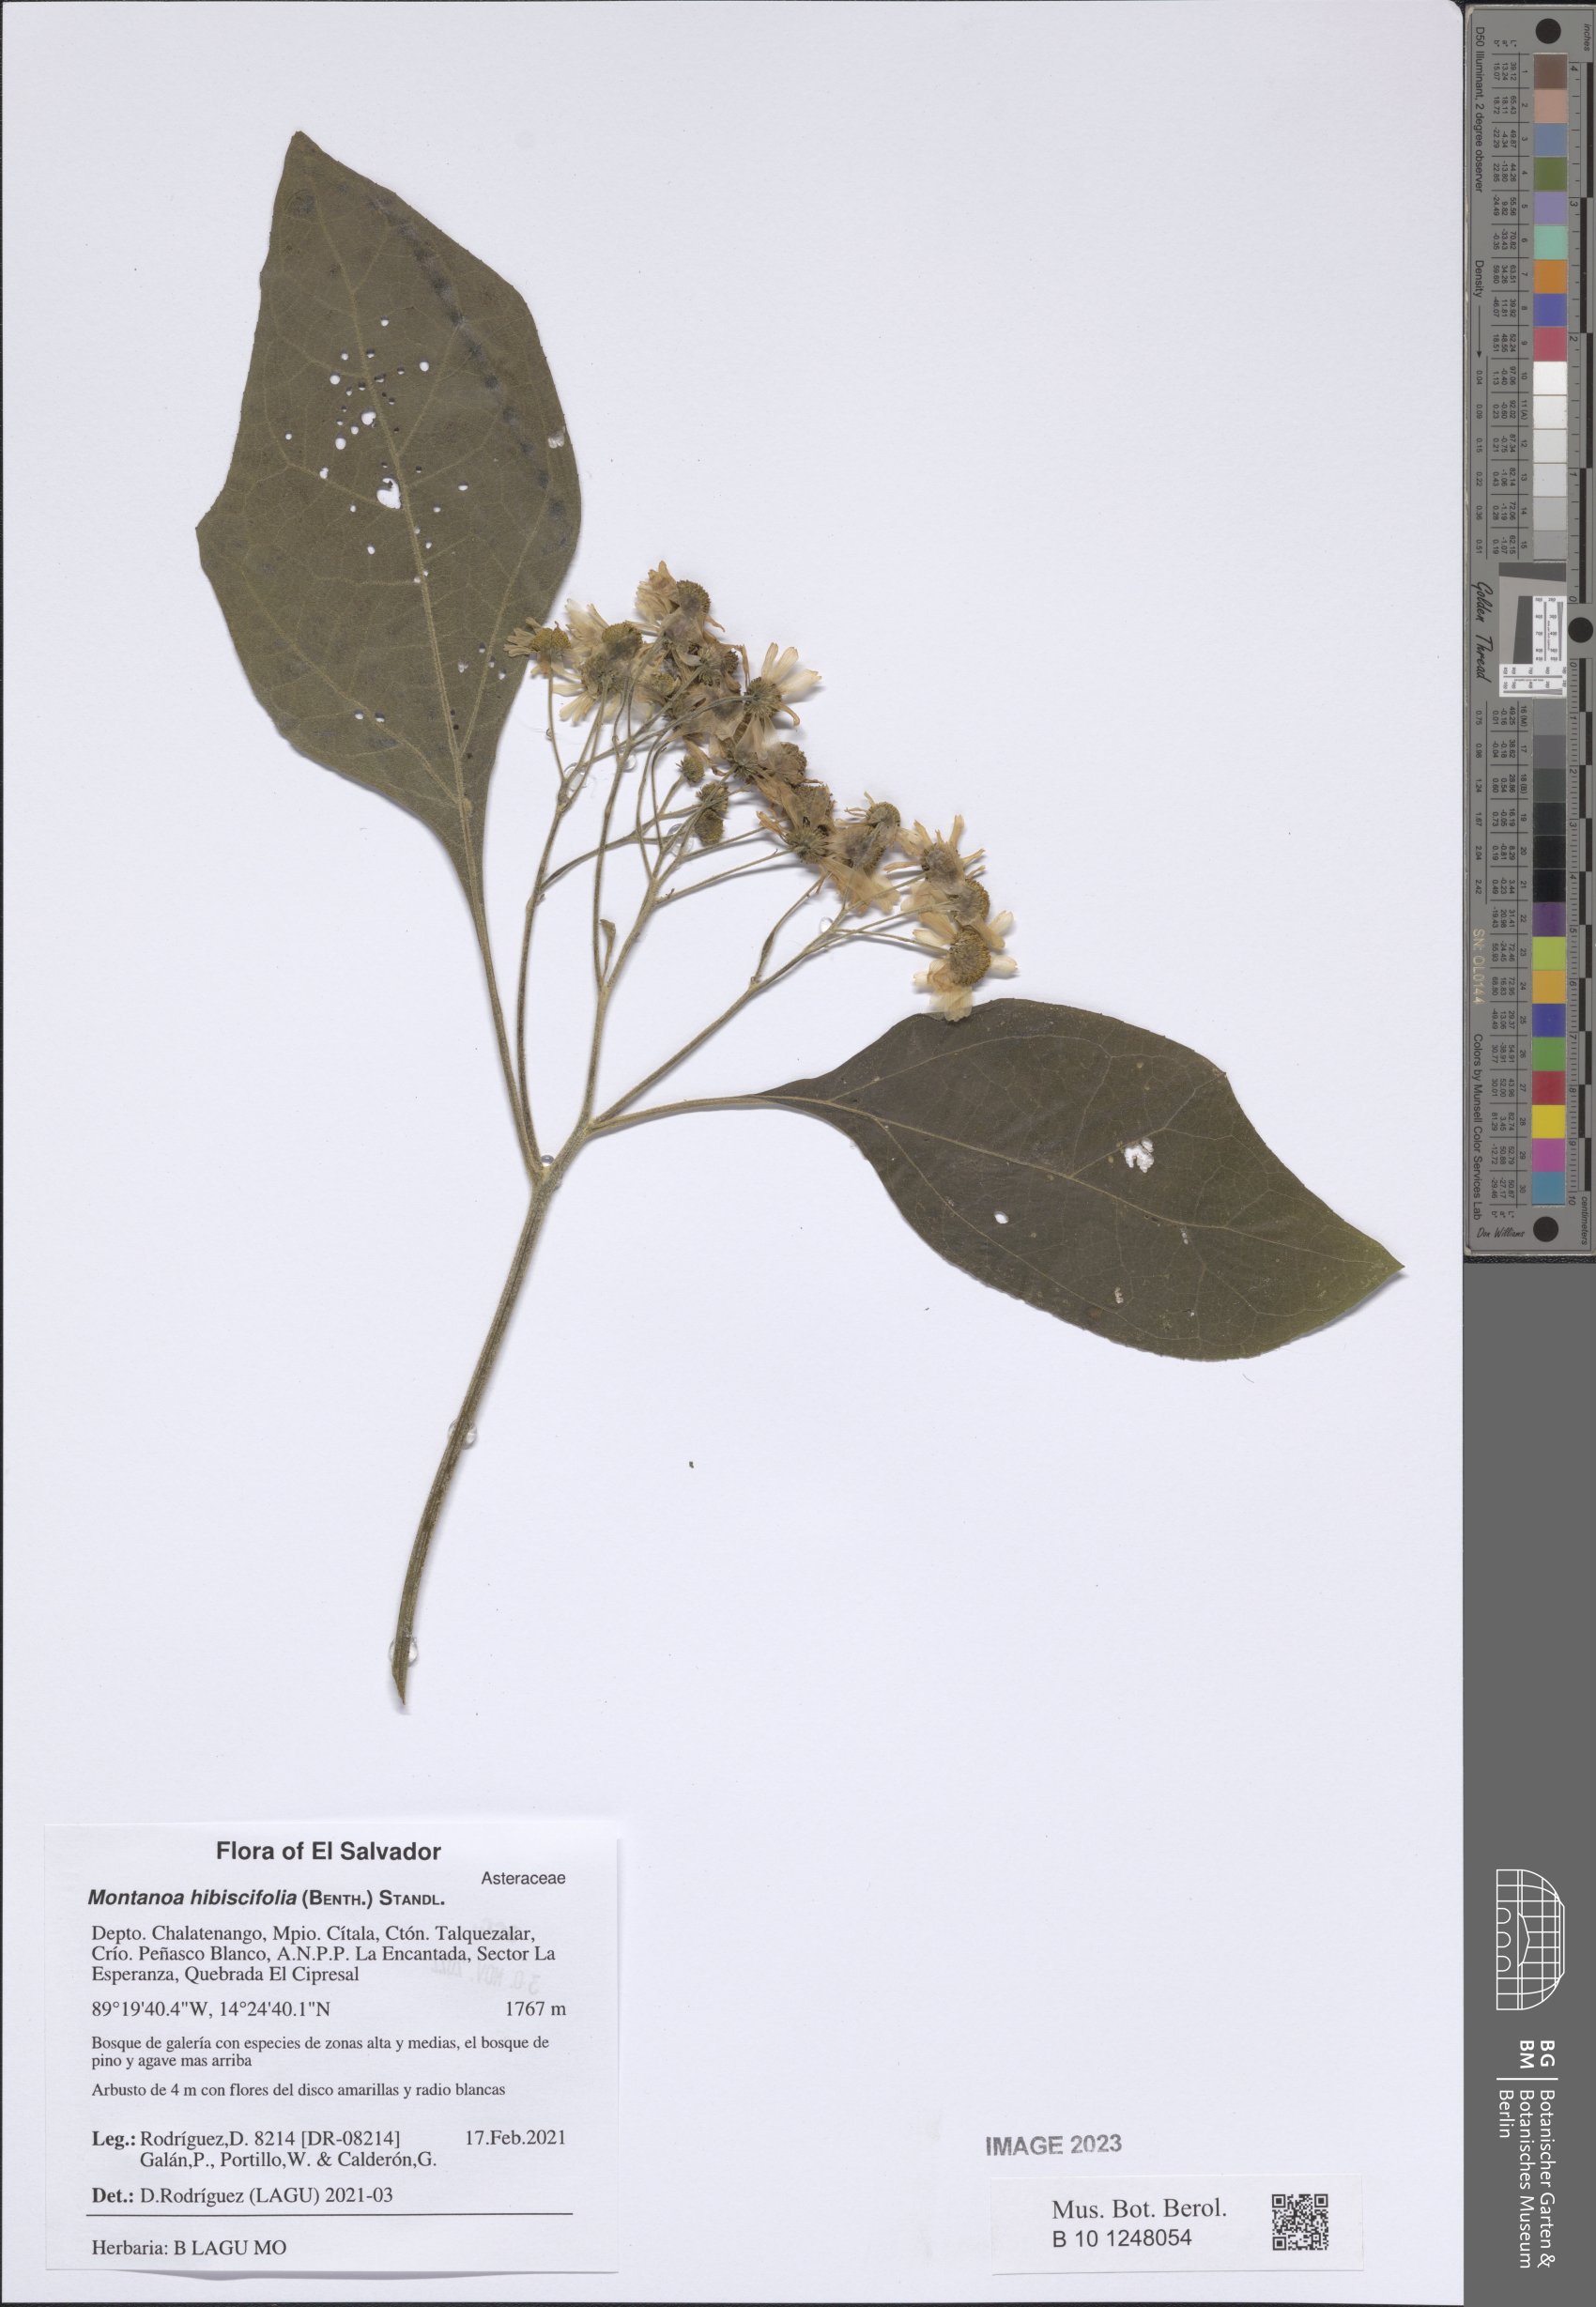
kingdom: Plantae
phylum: Tracheophyta
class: Magnoliopsida
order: Asterales
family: Asteraceae
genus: Montanoa
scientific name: Montanoa hibiscifolia
